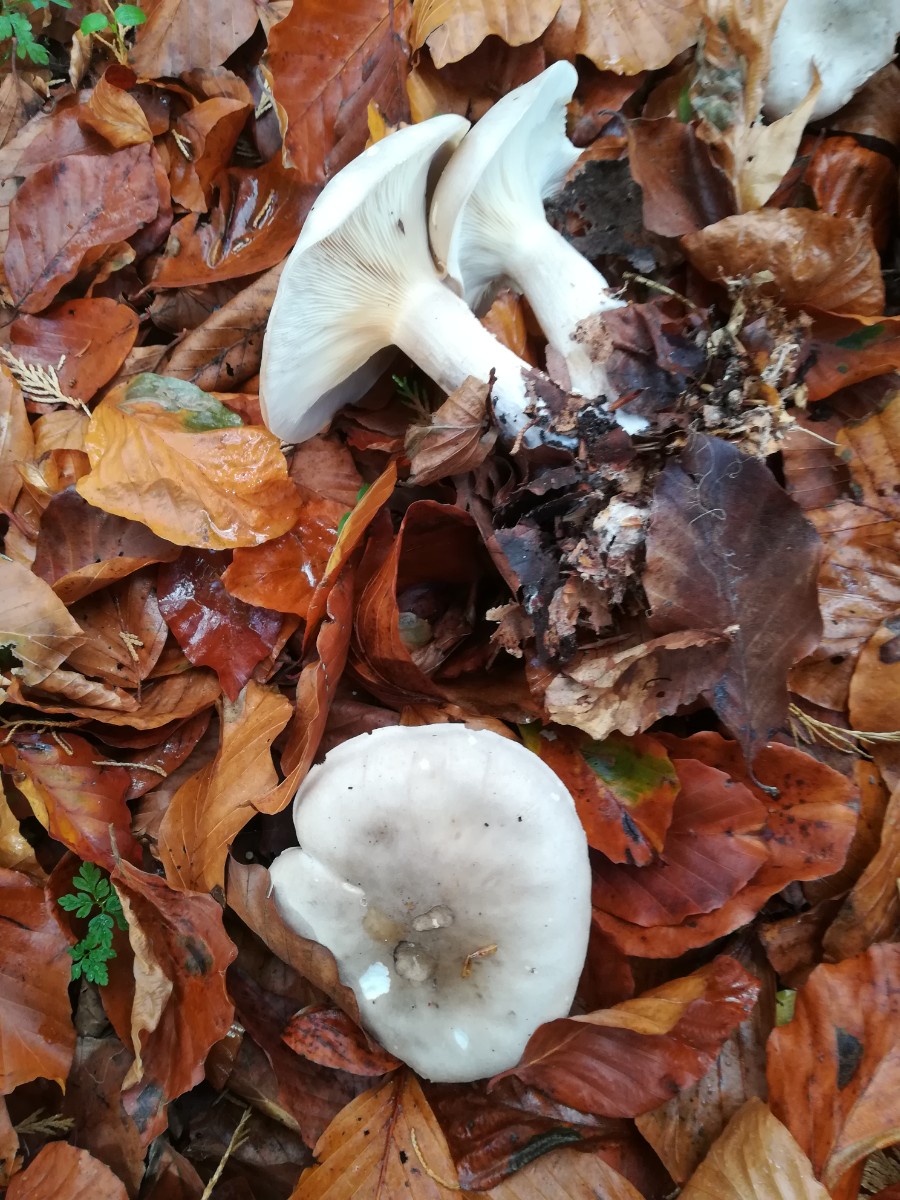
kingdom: Fungi
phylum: Basidiomycota
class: Agaricomycetes
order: Agaricales
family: Tricholomataceae
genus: Clitocybe
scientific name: Clitocybe nebularis
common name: tåge-tragthat
